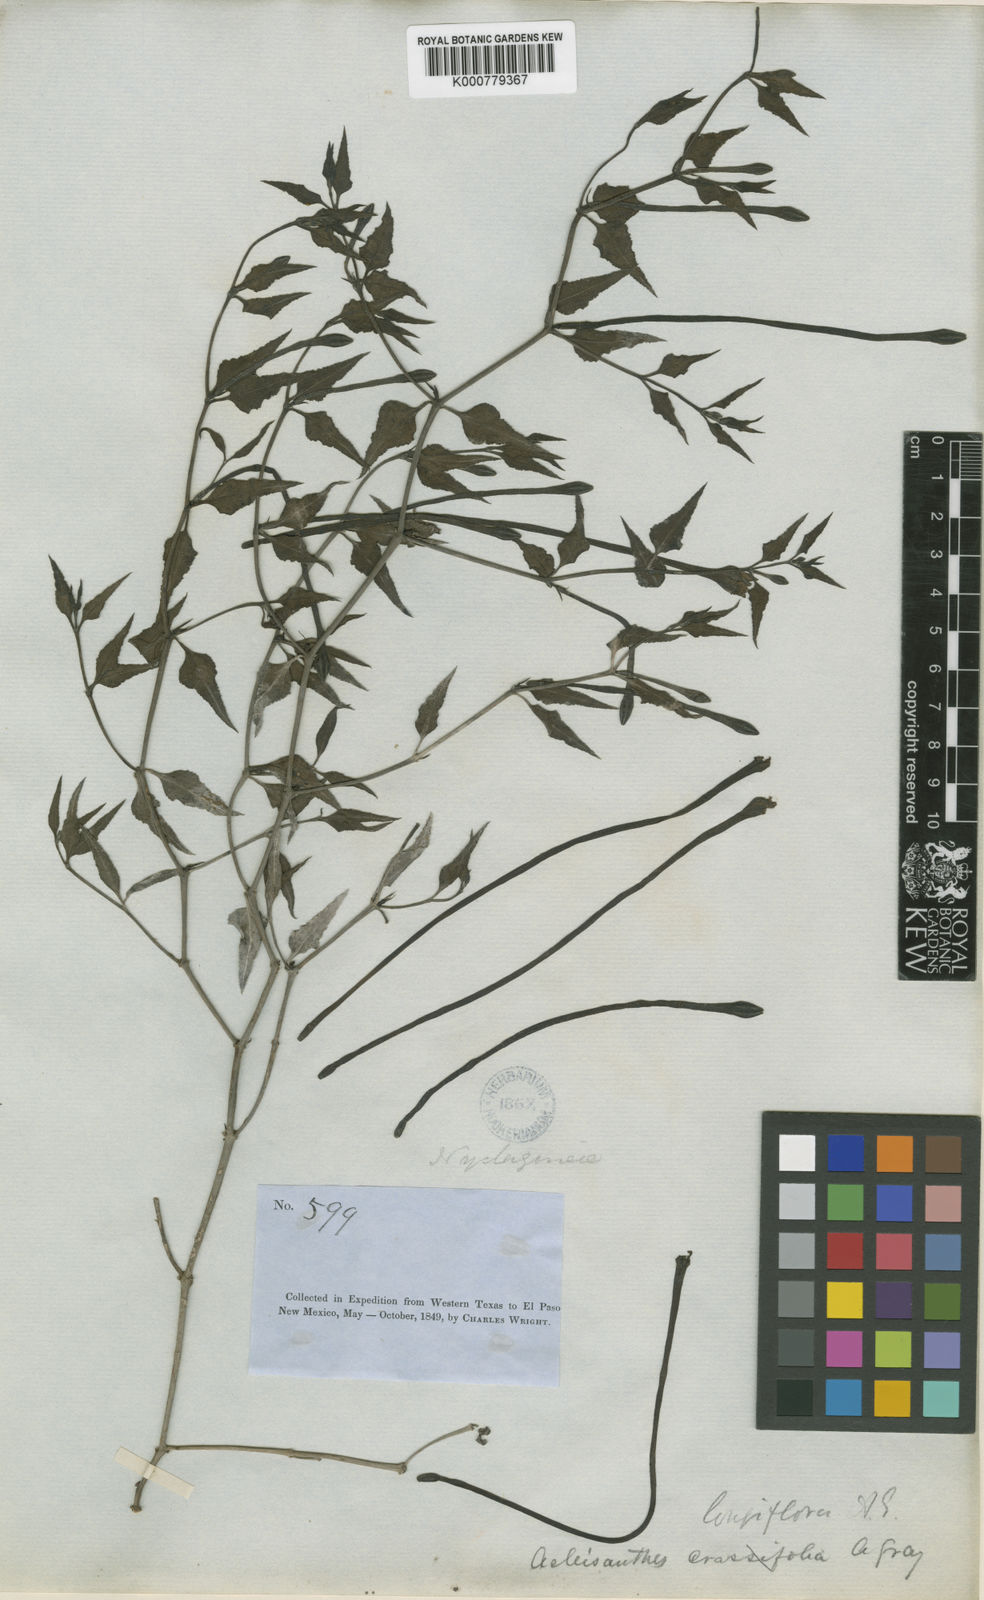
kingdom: Plantae
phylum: Tracheophyta
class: Magnoliopsida
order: Caryophyllales
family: Nyctaginaceae
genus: Acleisanthes
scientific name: Acleisanthes longiflora
